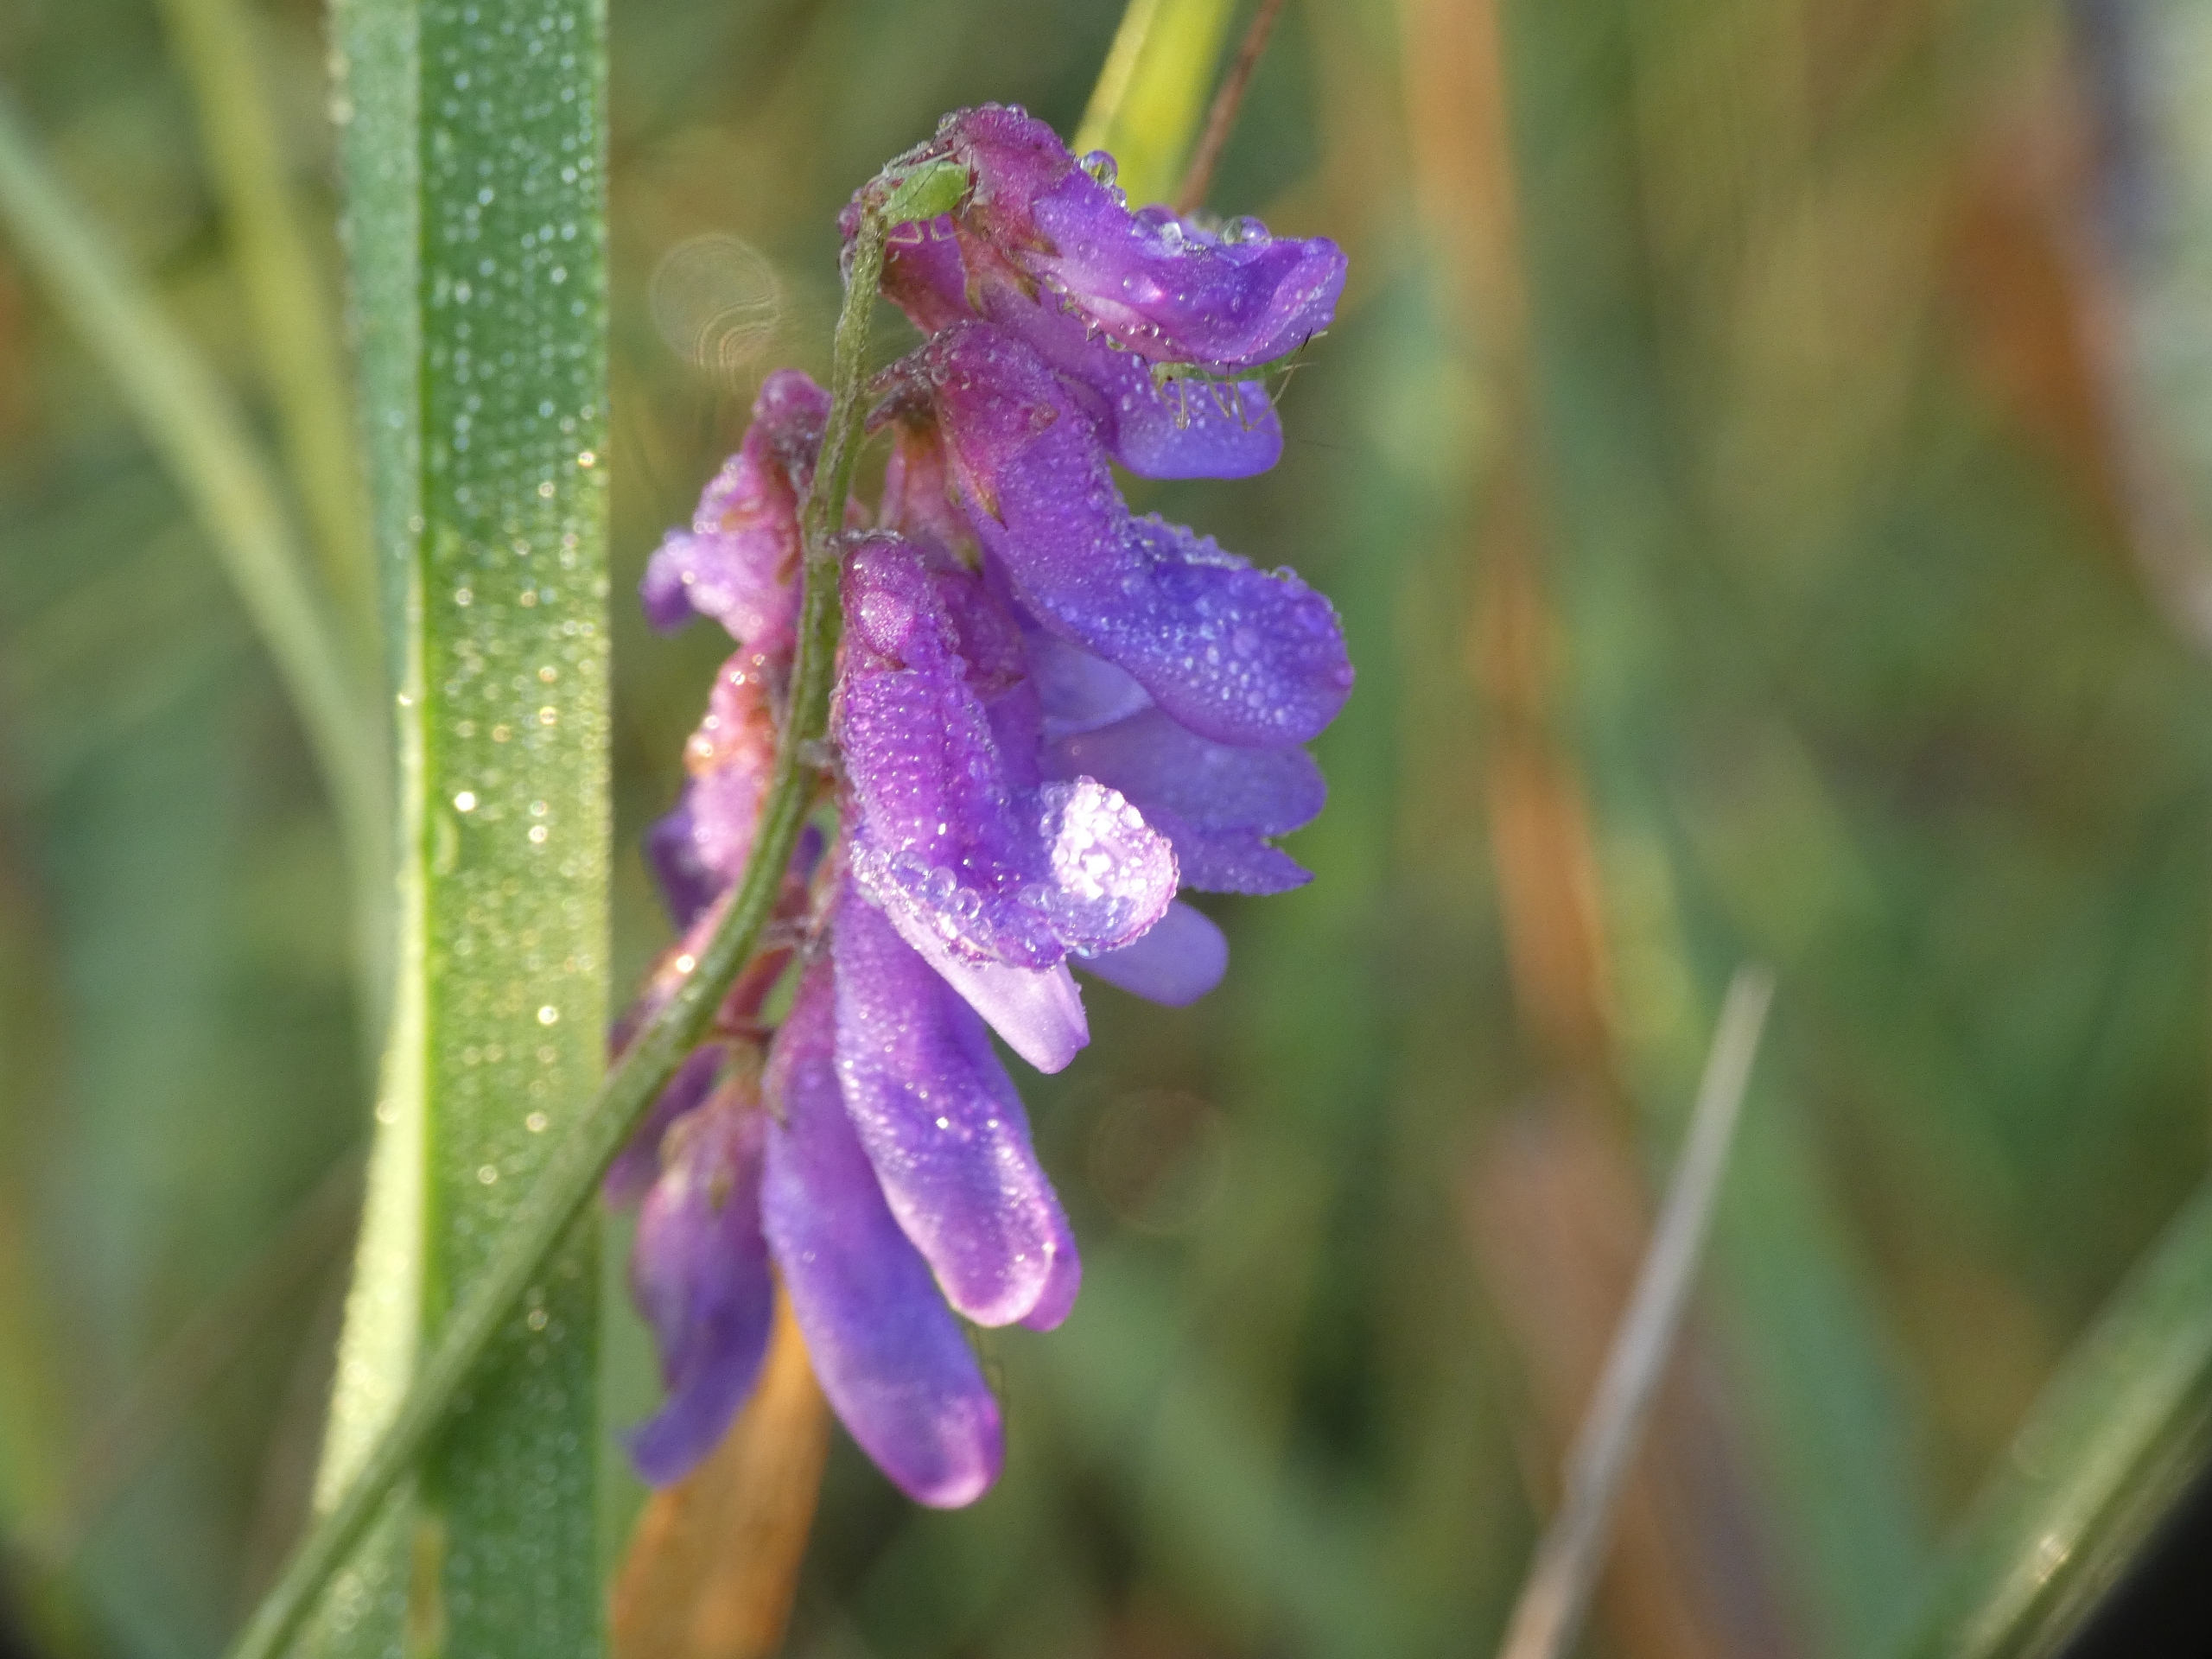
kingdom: Plantae
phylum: Tracheophyta
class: Magnoliopsida
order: Fabales
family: Fabaceae
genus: Vicia
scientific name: Vicia cracca
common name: Muse-vikke
